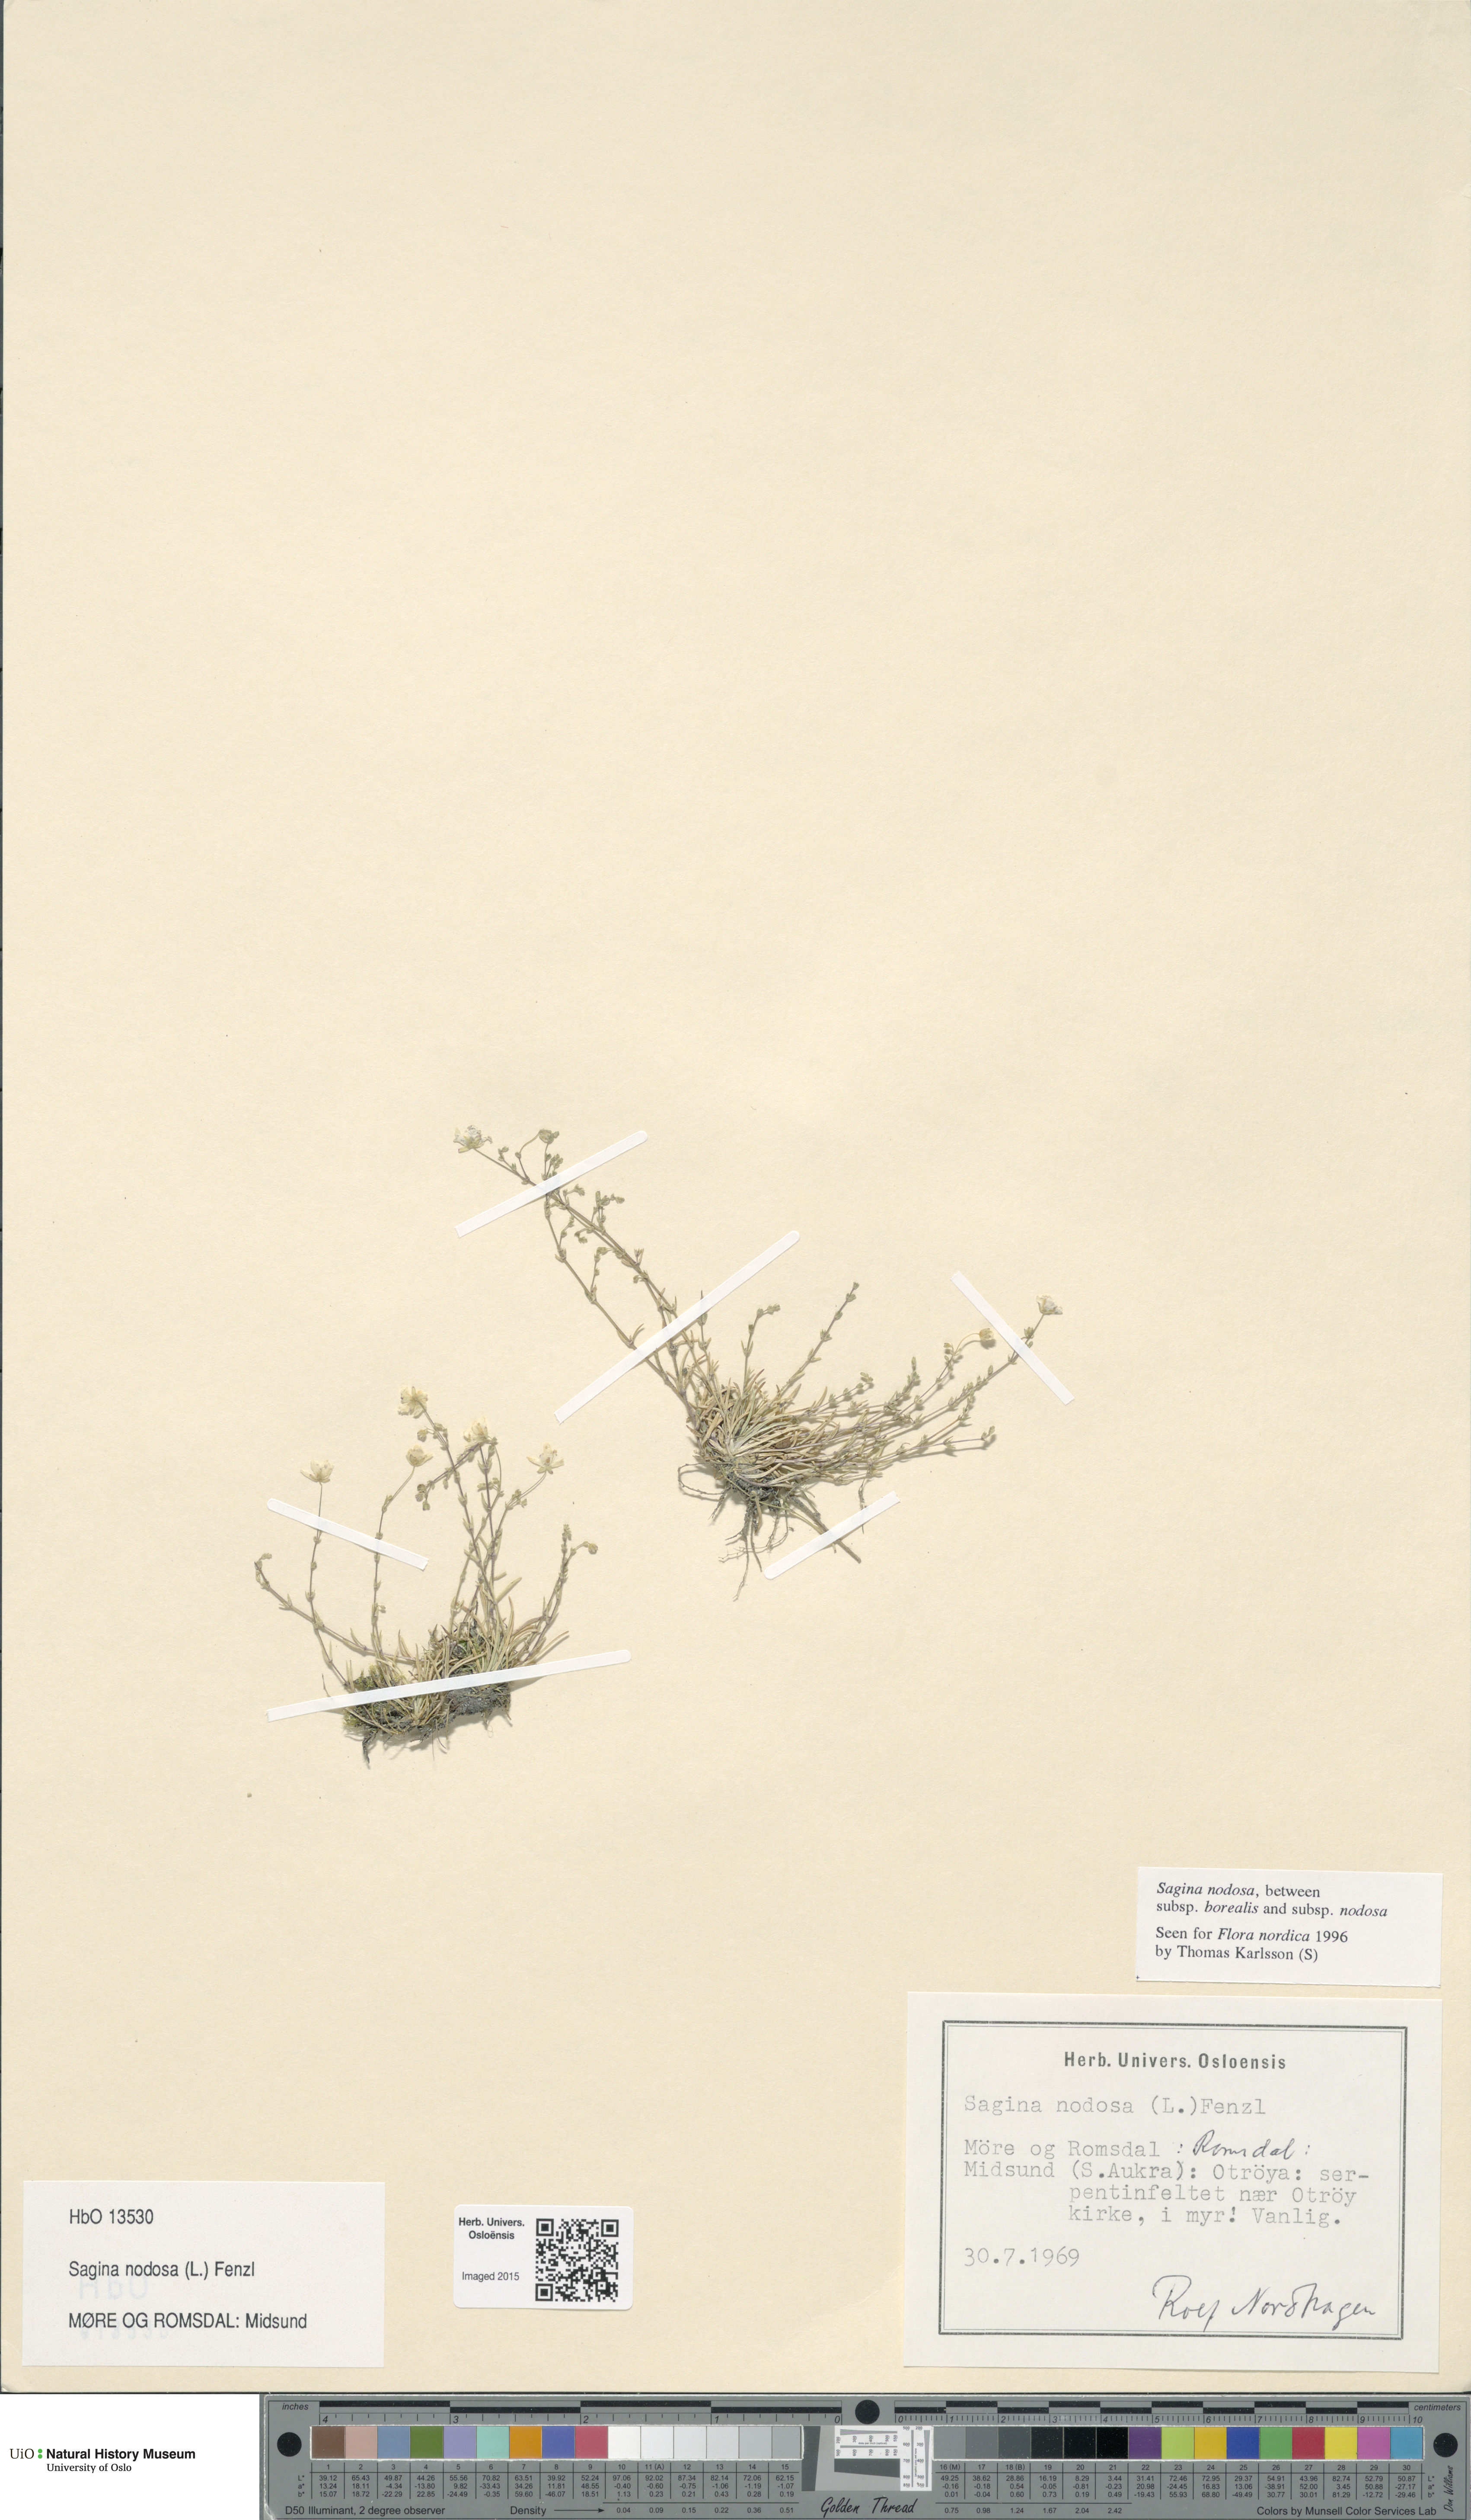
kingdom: Plantae
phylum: Tracheophyta
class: Magnoliopsida
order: Caryophyllales
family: Caryophyllaceae
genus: Sagina
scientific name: Sagina nodosa
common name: Knotted pearlwort
